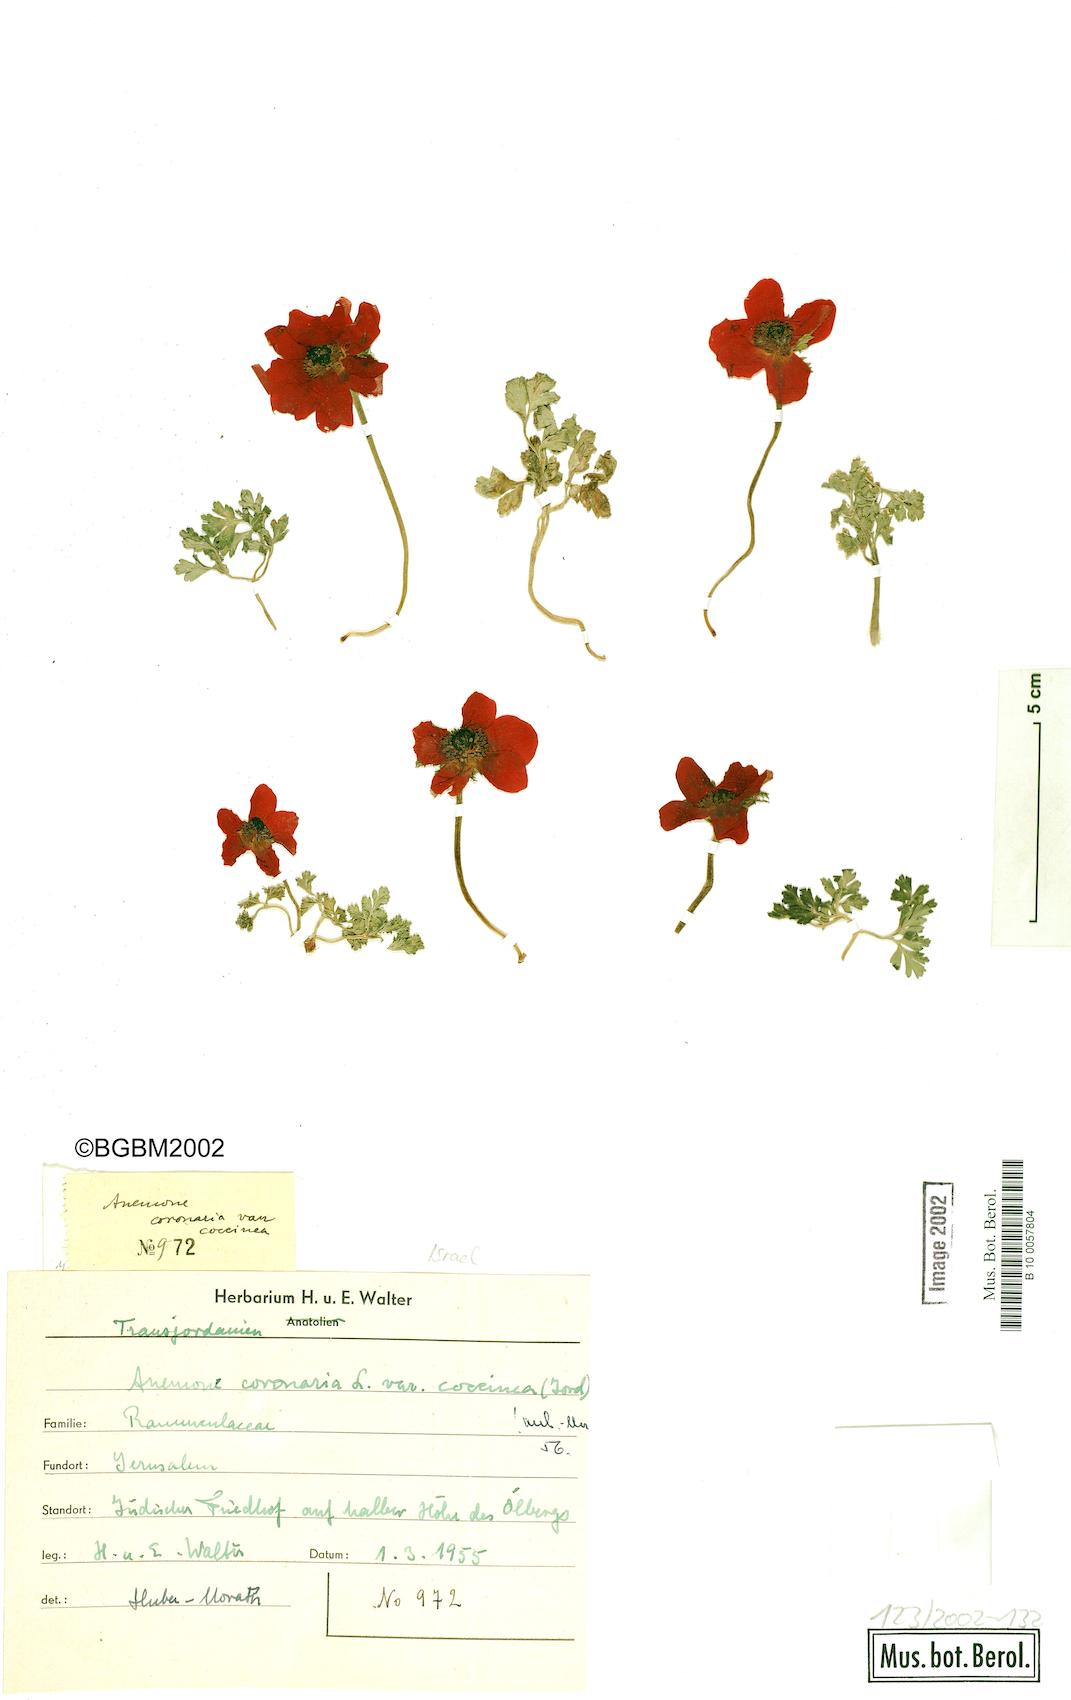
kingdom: Plantae
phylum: Tracheophyta
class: Magnoliopsida
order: Ranunculales
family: Ranunculaceae
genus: Anemone
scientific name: Anemone coronaria
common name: Poppy anemone
